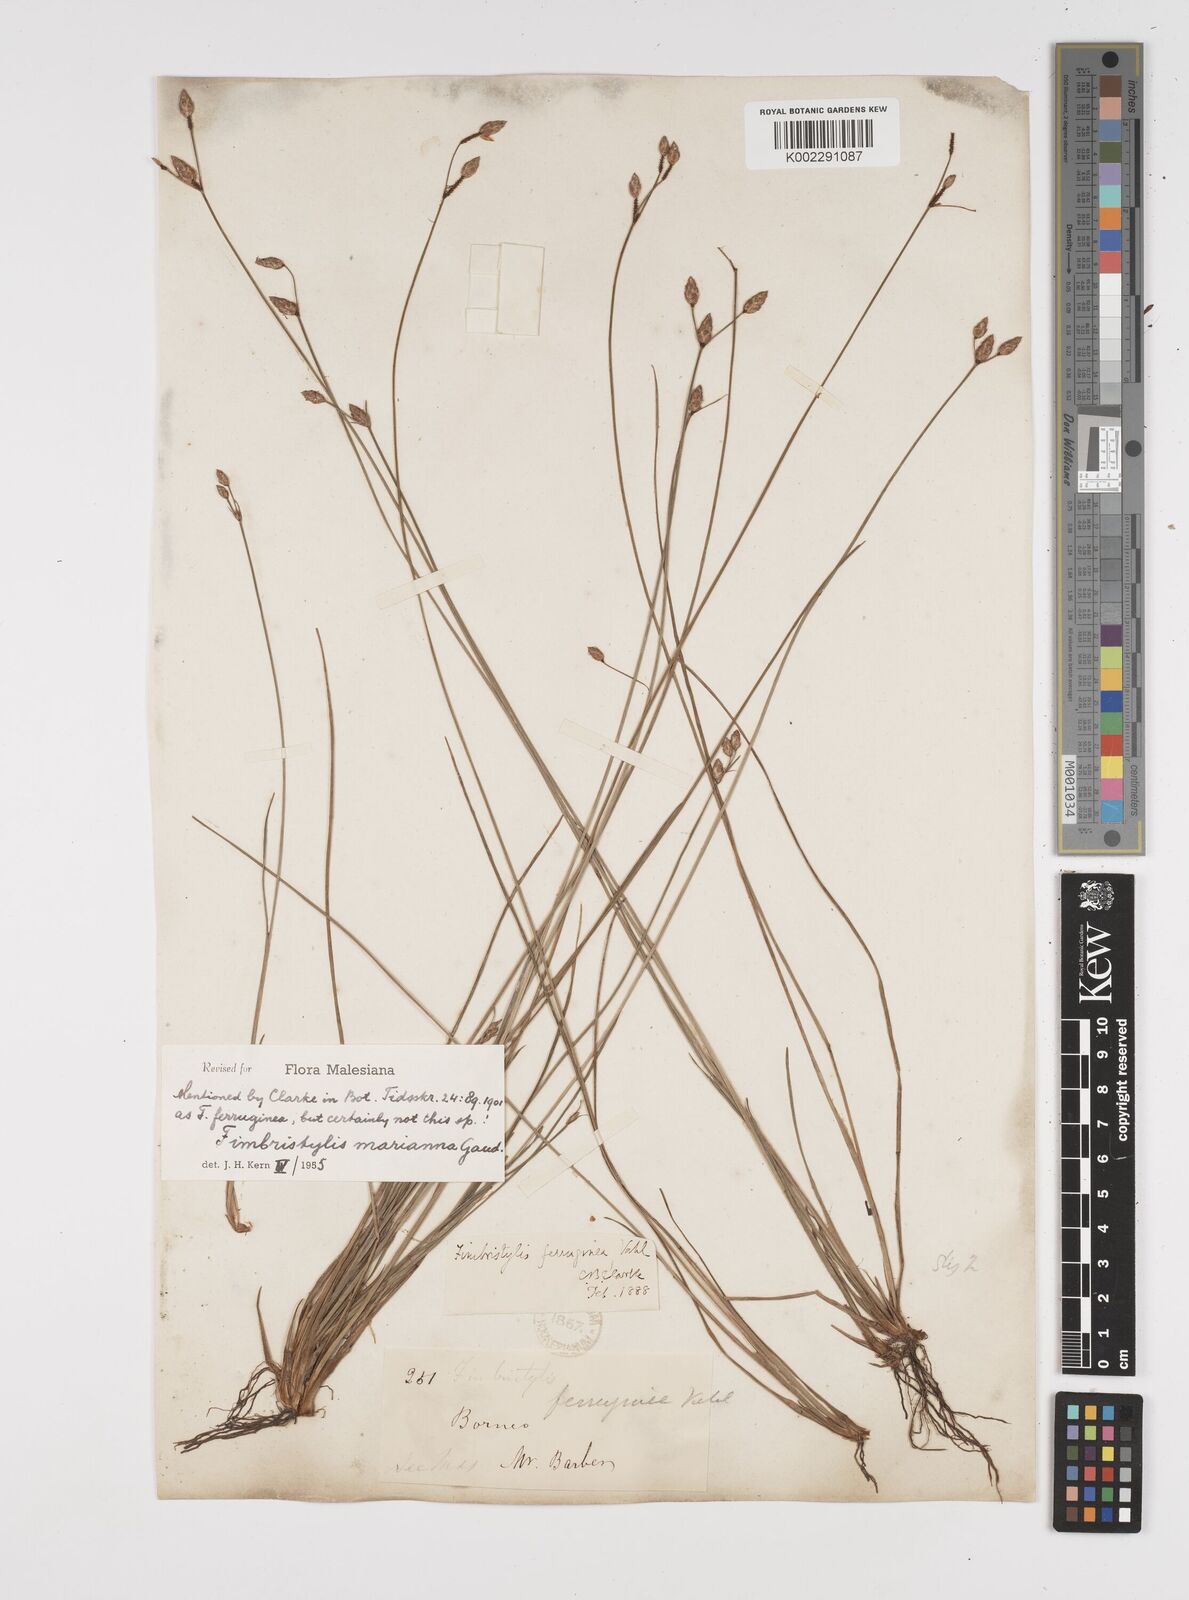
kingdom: Plantae
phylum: Tracheophyta
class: Liliopsida
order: Poales
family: Cyperaceae
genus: Fimbristylis
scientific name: Fimbristylis tristachya
